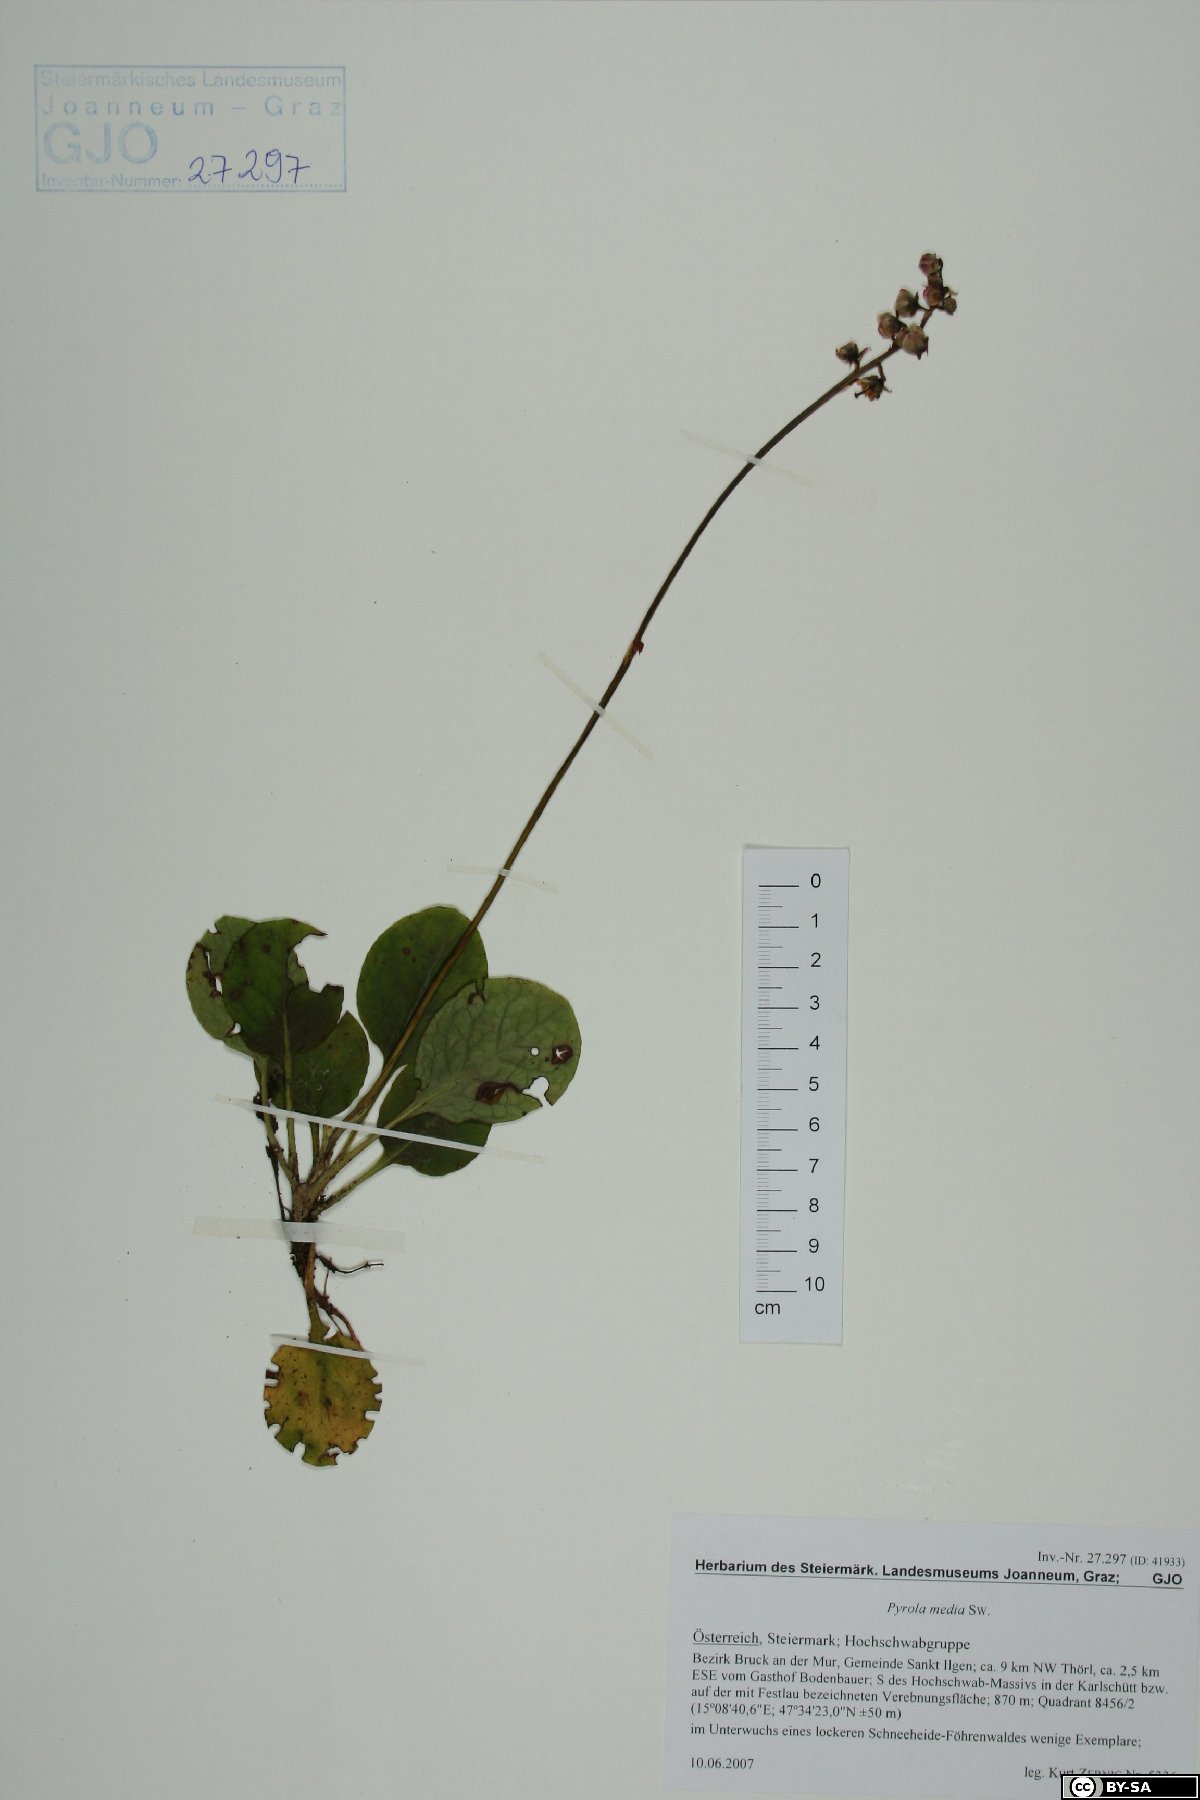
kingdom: Fungi
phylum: Basidiomycota
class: Agaricomycetes
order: Trechisporales
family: Sistotremataceae
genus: Trechispora
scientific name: Trechispora farinacea
